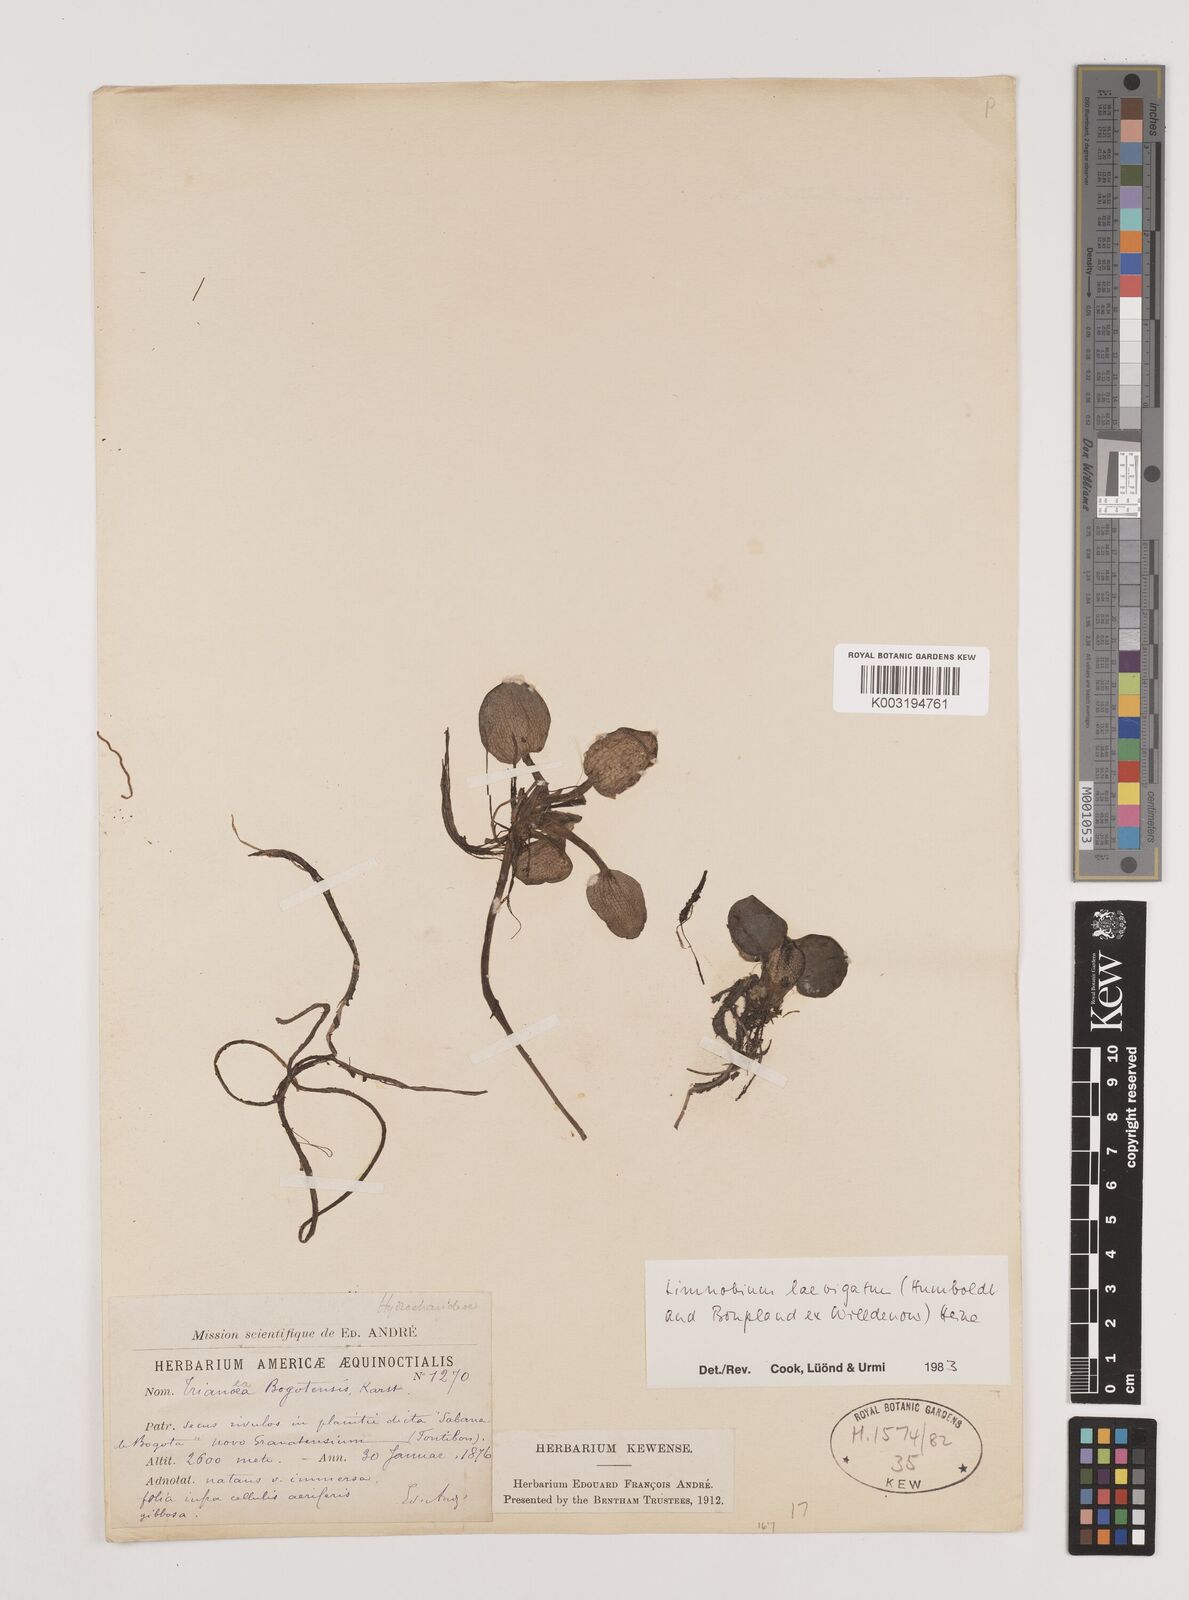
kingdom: Plantae
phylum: Tracheophyta
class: Liliopsida
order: Alismatales
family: Hydrocharitaceae
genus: Hydrocharis
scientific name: Hydrocharis laevigata
